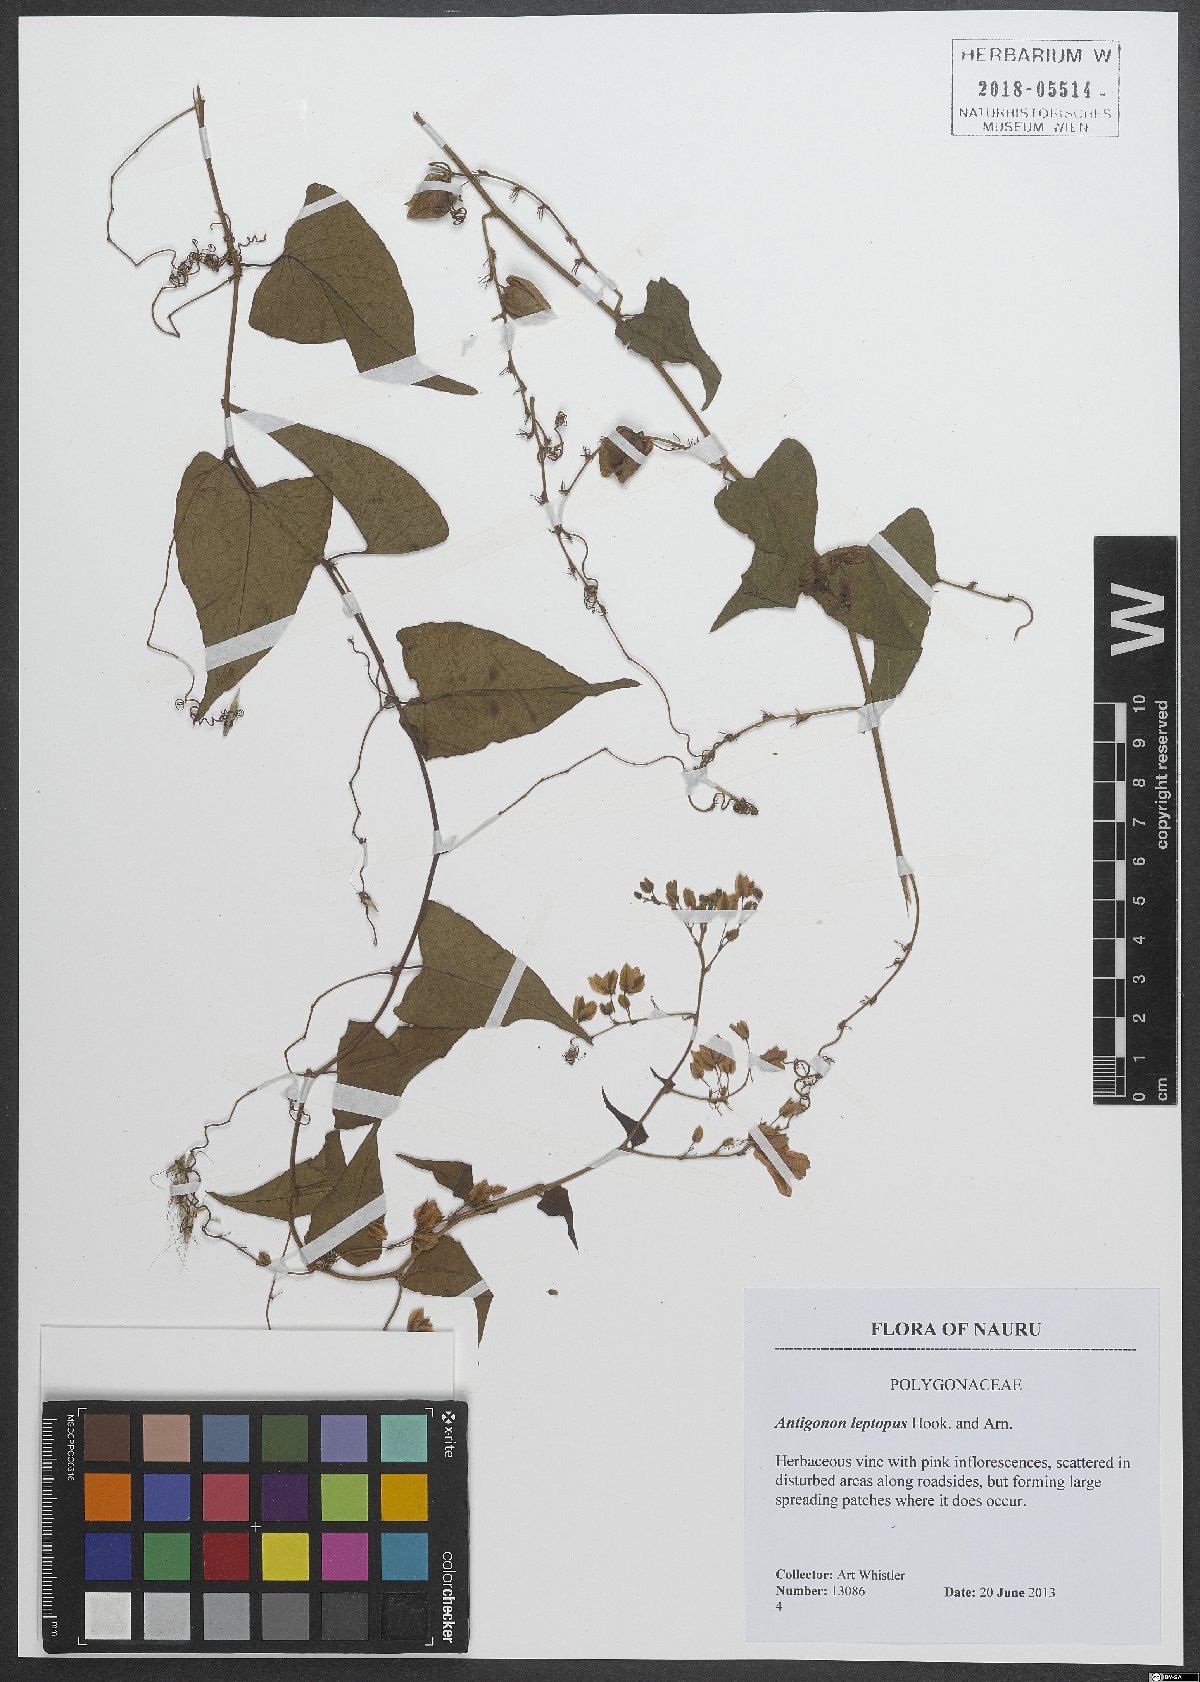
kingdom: Plantae
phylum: Tracheophyta
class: Magnoliopsida
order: Caryophyllales
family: Polygonaceae
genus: Antigonon
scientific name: Antigonon leptopus
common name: Coral vine
